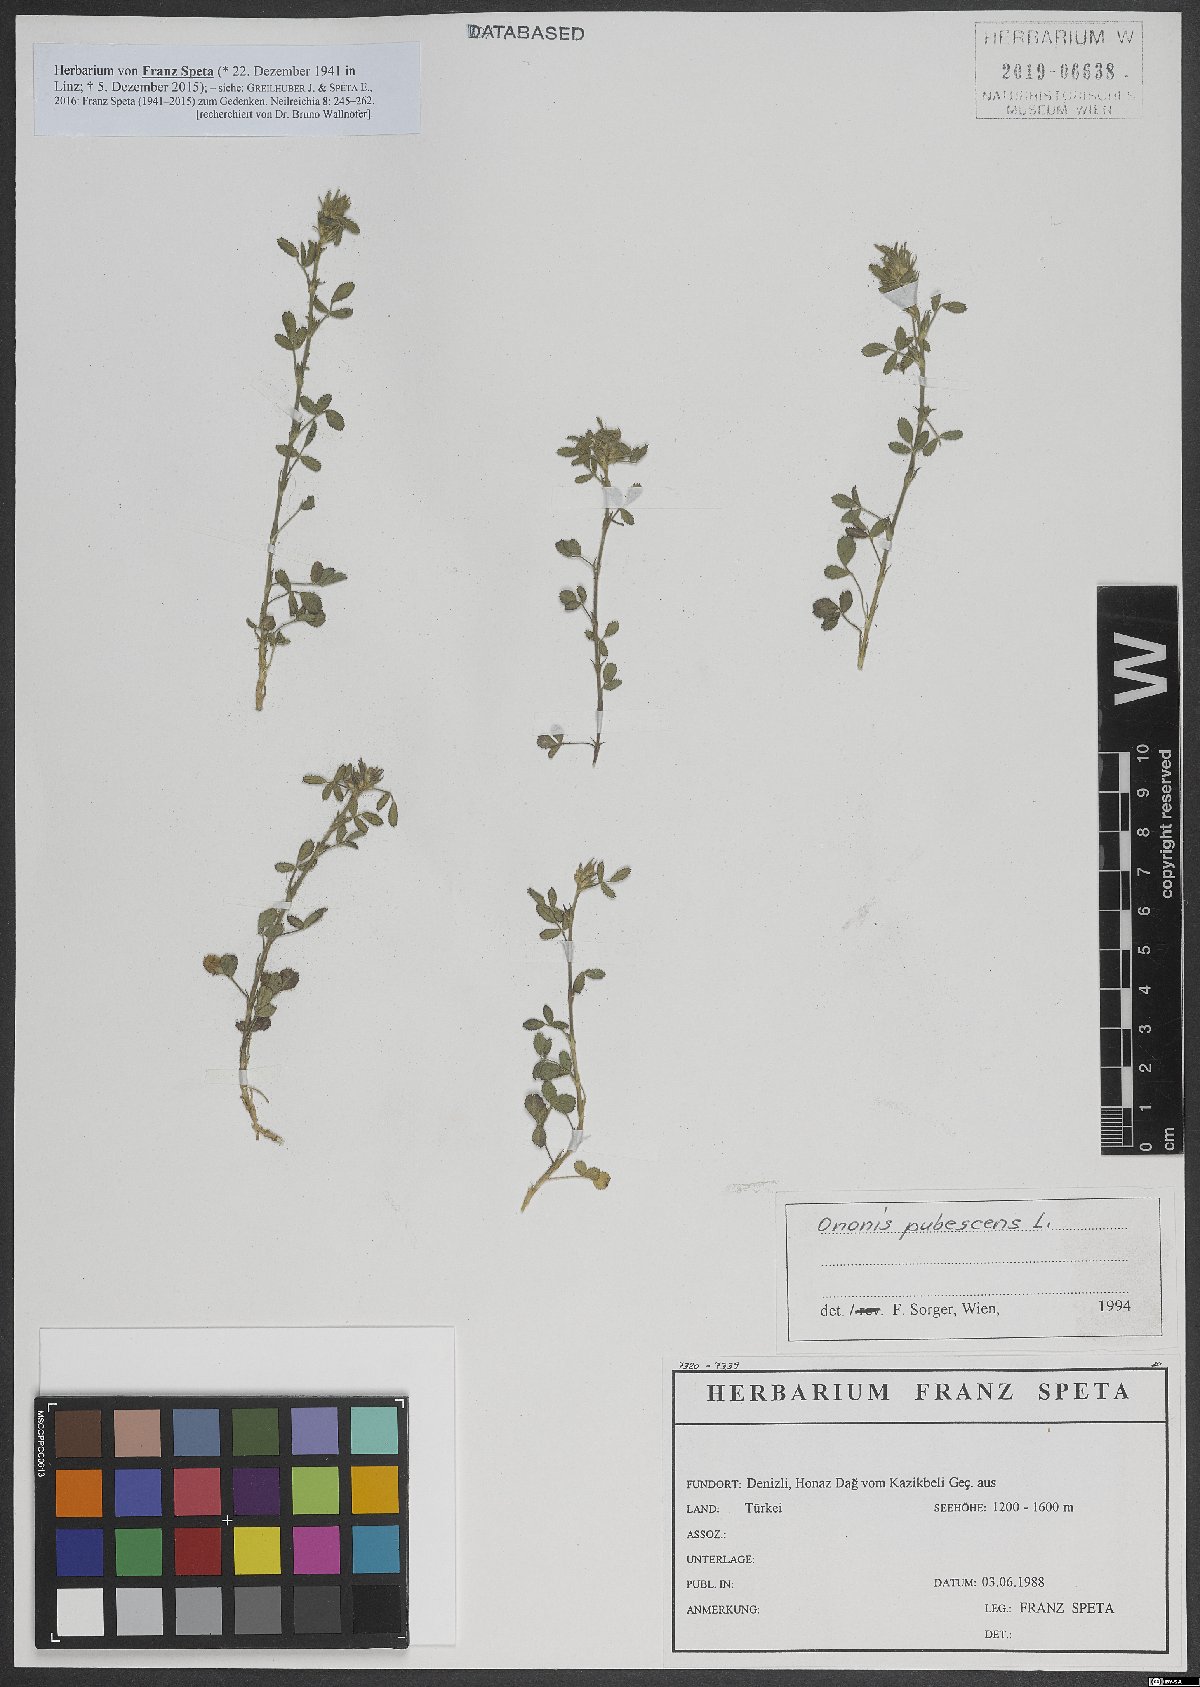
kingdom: Plantae
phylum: Tracheophyta
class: Magnoliopsida
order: Fabales
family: Fabaceae
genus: Ononis
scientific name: Ononis pubescens
